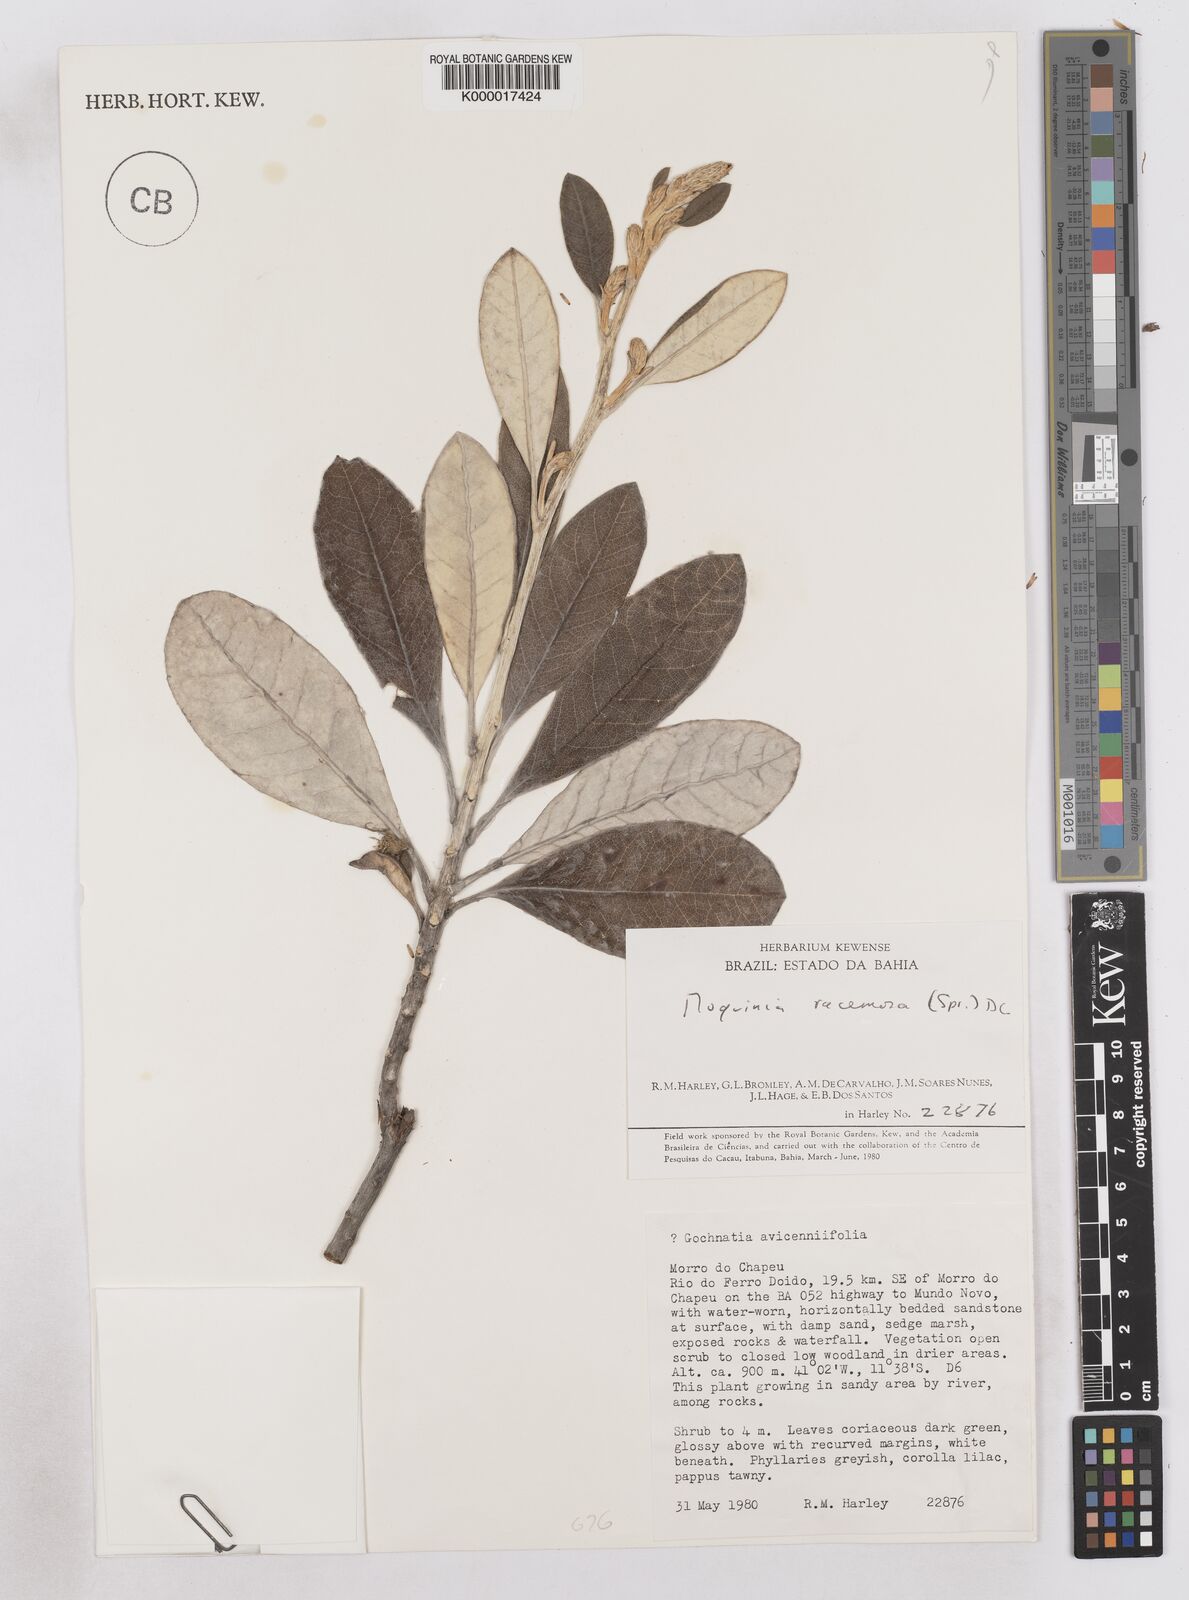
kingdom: Plantae
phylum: Tracheophyta
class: Magnoliopsida
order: Asterales
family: Asteraceae
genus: Moquinia
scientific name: Moquinia racemosa
